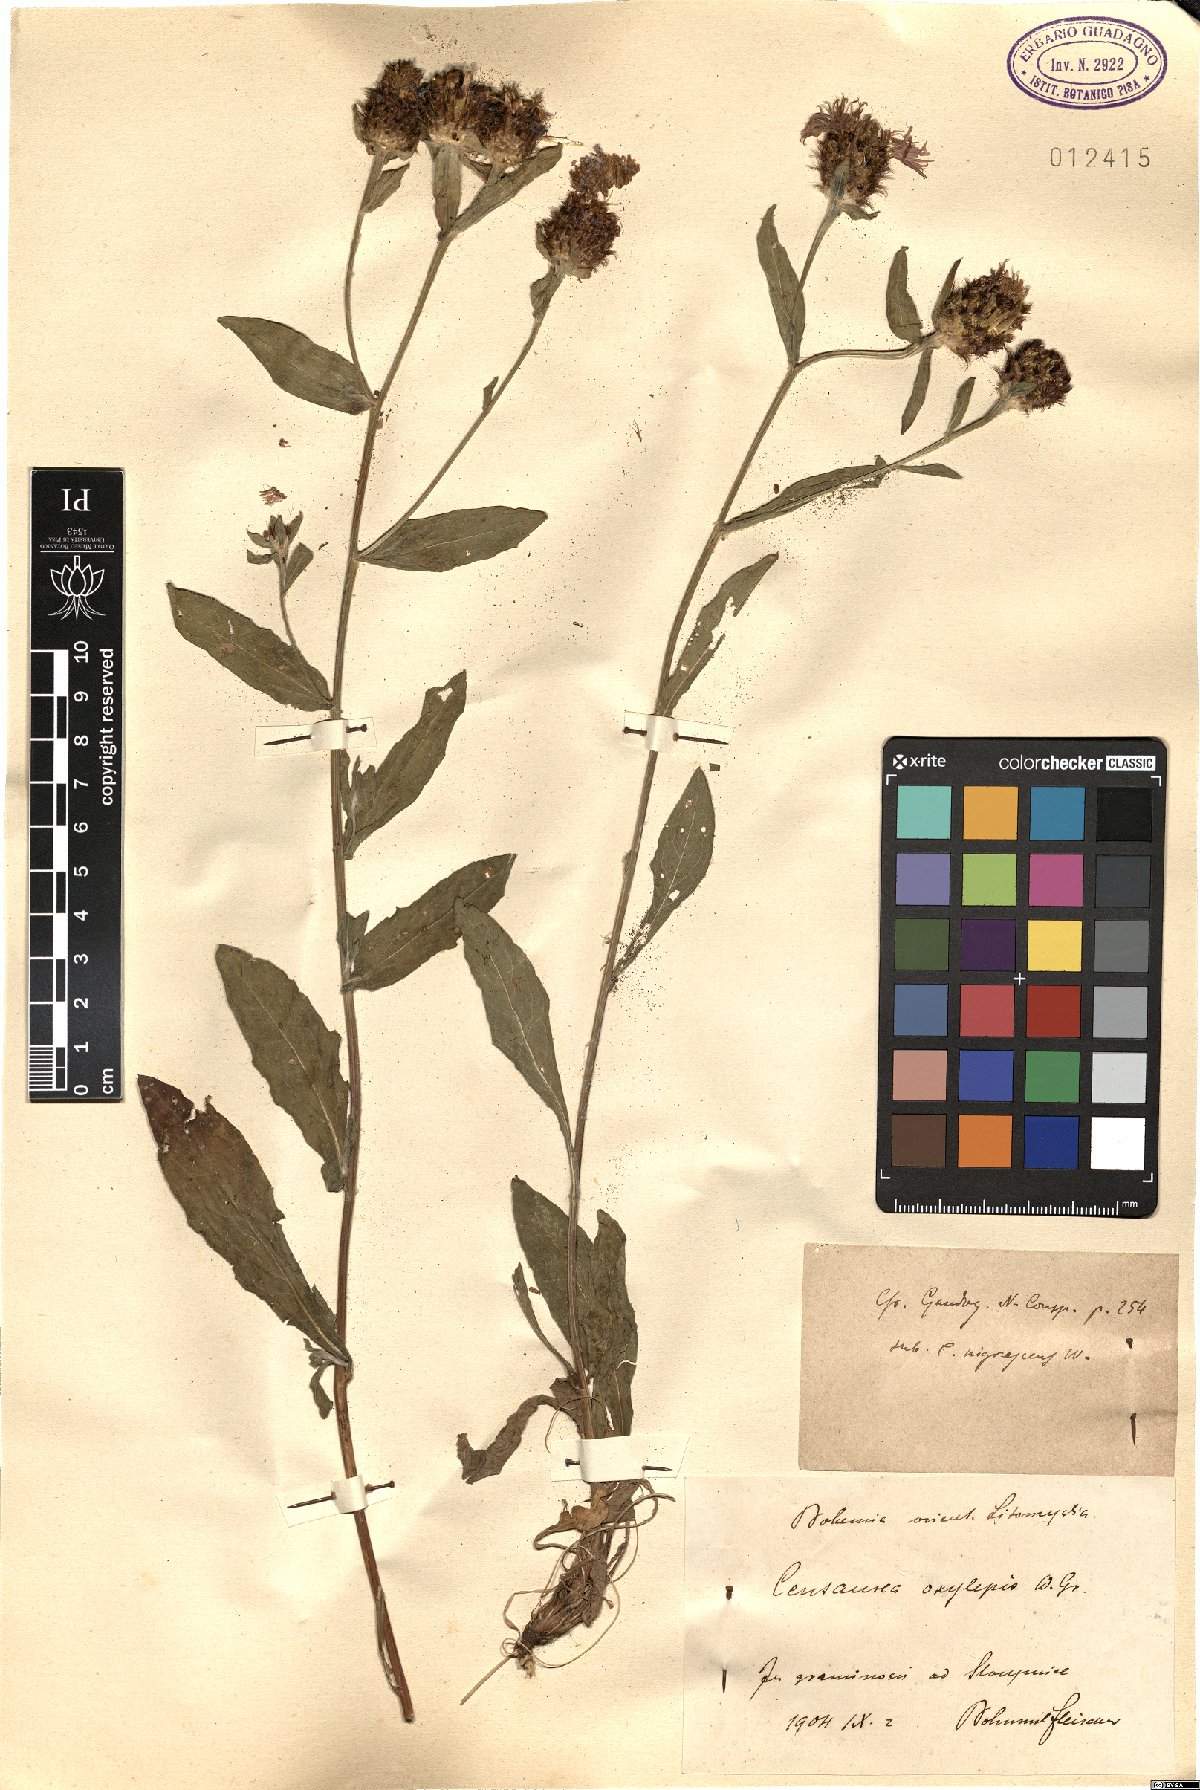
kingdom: Plantae
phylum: Tracheophyta
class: Magnoliopsida
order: Asterales
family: Asteraceae
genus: Centaurea
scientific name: Centaurea oxylepis
